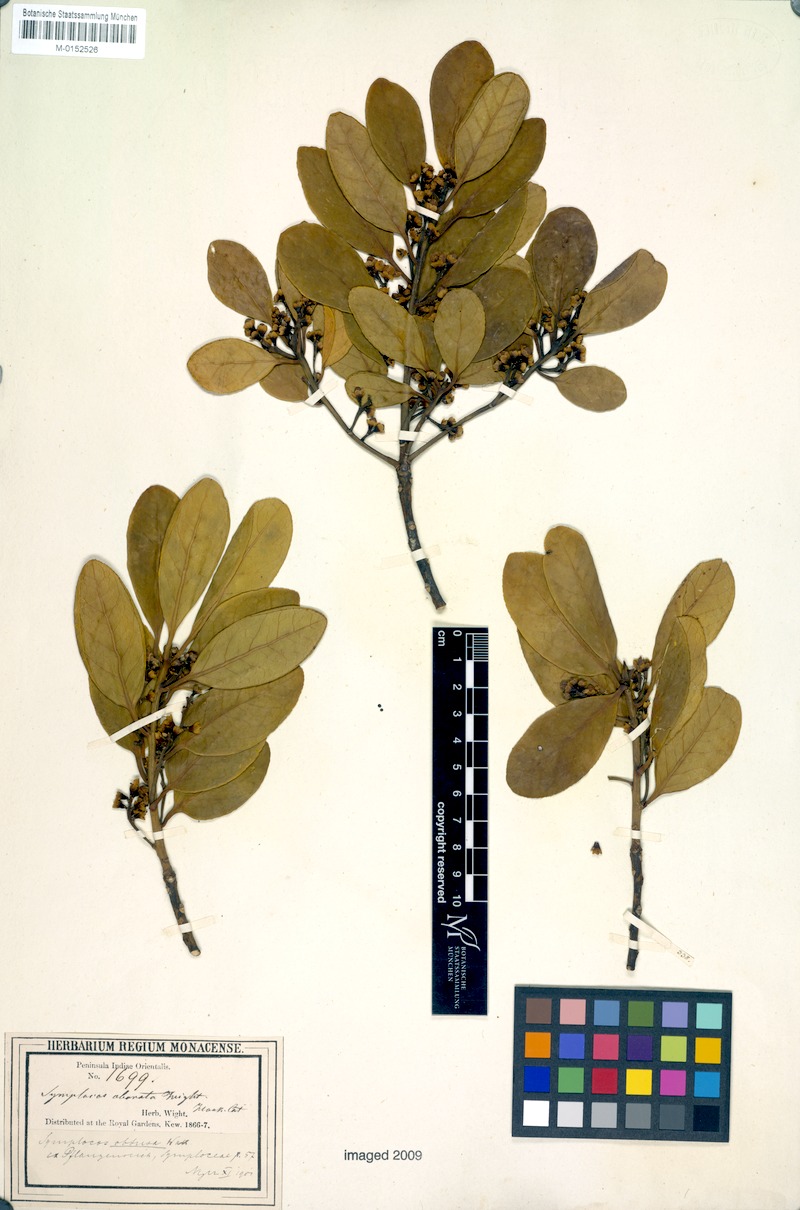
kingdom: Plantae
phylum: Tracheophyta
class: Magnoliopsida
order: Ericales
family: Symplocaceae
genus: Symplocos
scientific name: Symplocos obtusa
